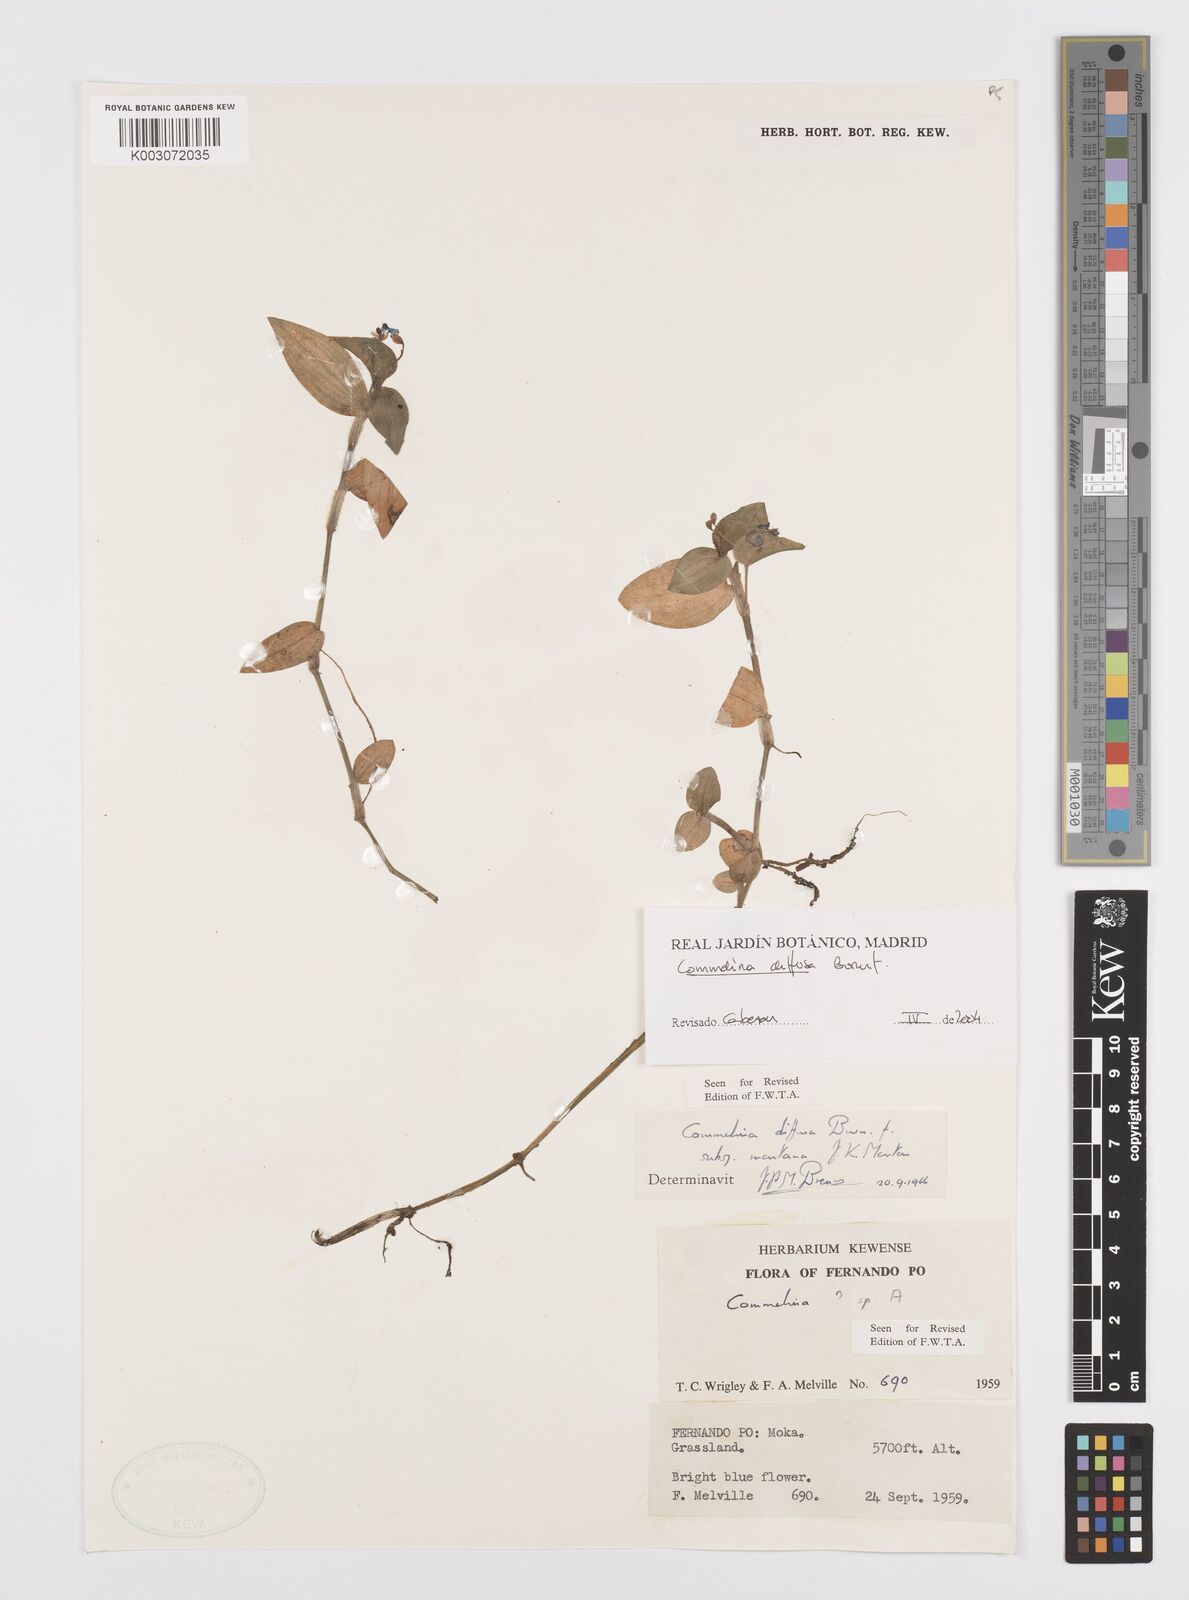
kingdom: Plantae
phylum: Tracheophyta
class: Liliopsida
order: Commelinales
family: Commelinaceae
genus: Commelina
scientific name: Commelina diffusa
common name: Climbing dayflower
